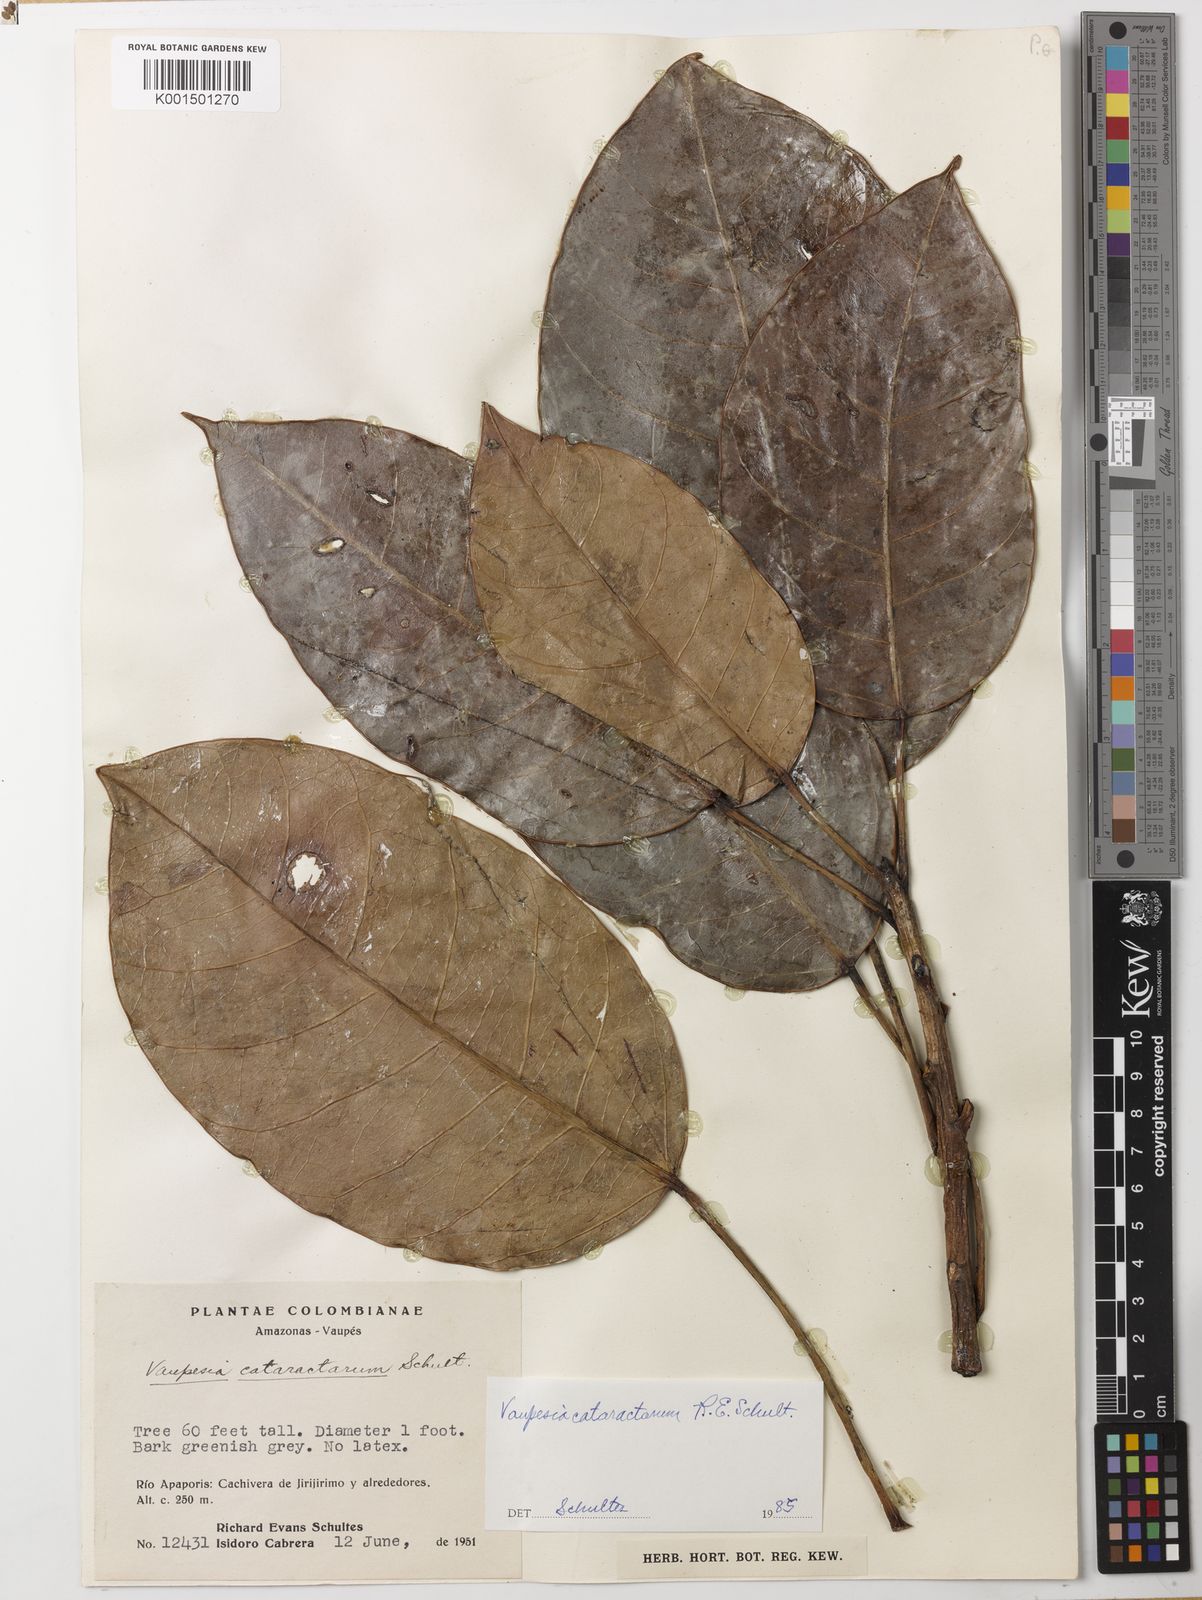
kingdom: Plantae
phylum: Tracheophyta
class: Magnoliopsida
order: Malpighiales
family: Euphorbiaceae
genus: Vaupesia
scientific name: Vaupesia cataractarum
